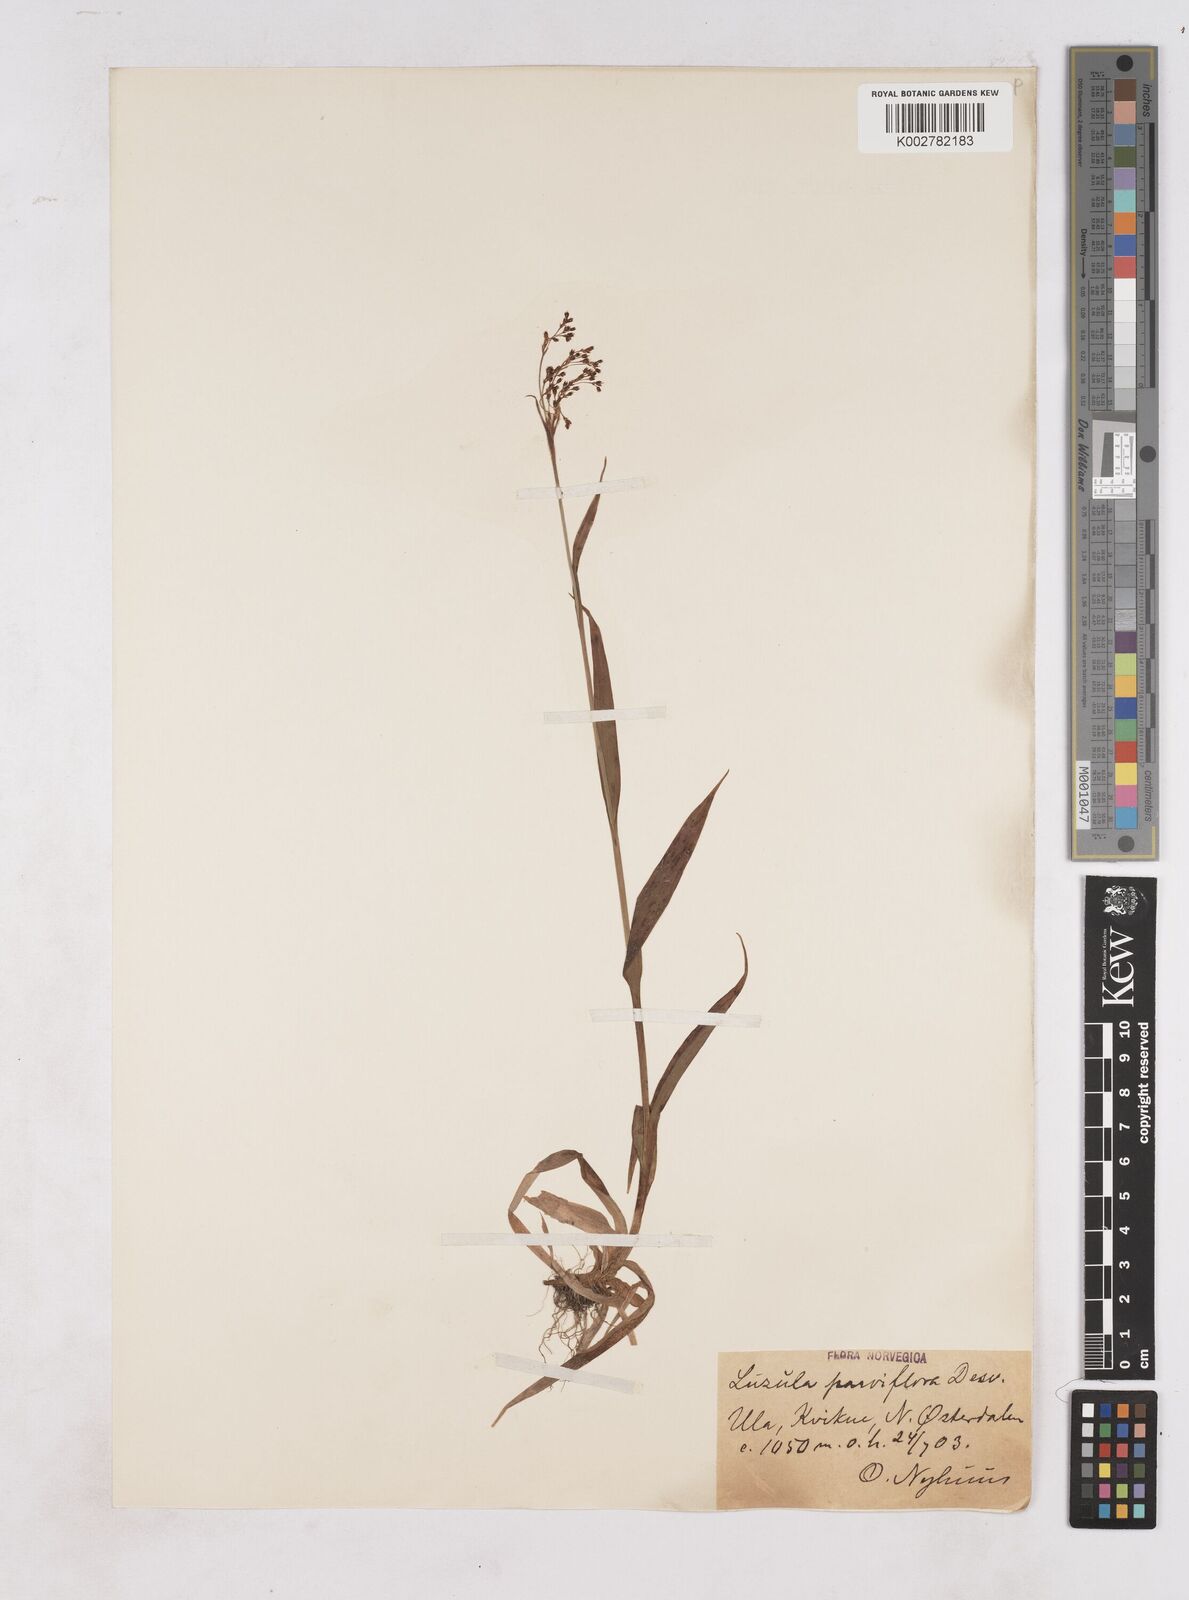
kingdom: Plantae
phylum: Tracheophyta
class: Liliopsida
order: Poales
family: Juncaceae
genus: Luzula
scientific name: Luzula parviflora
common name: Millet woodrush
